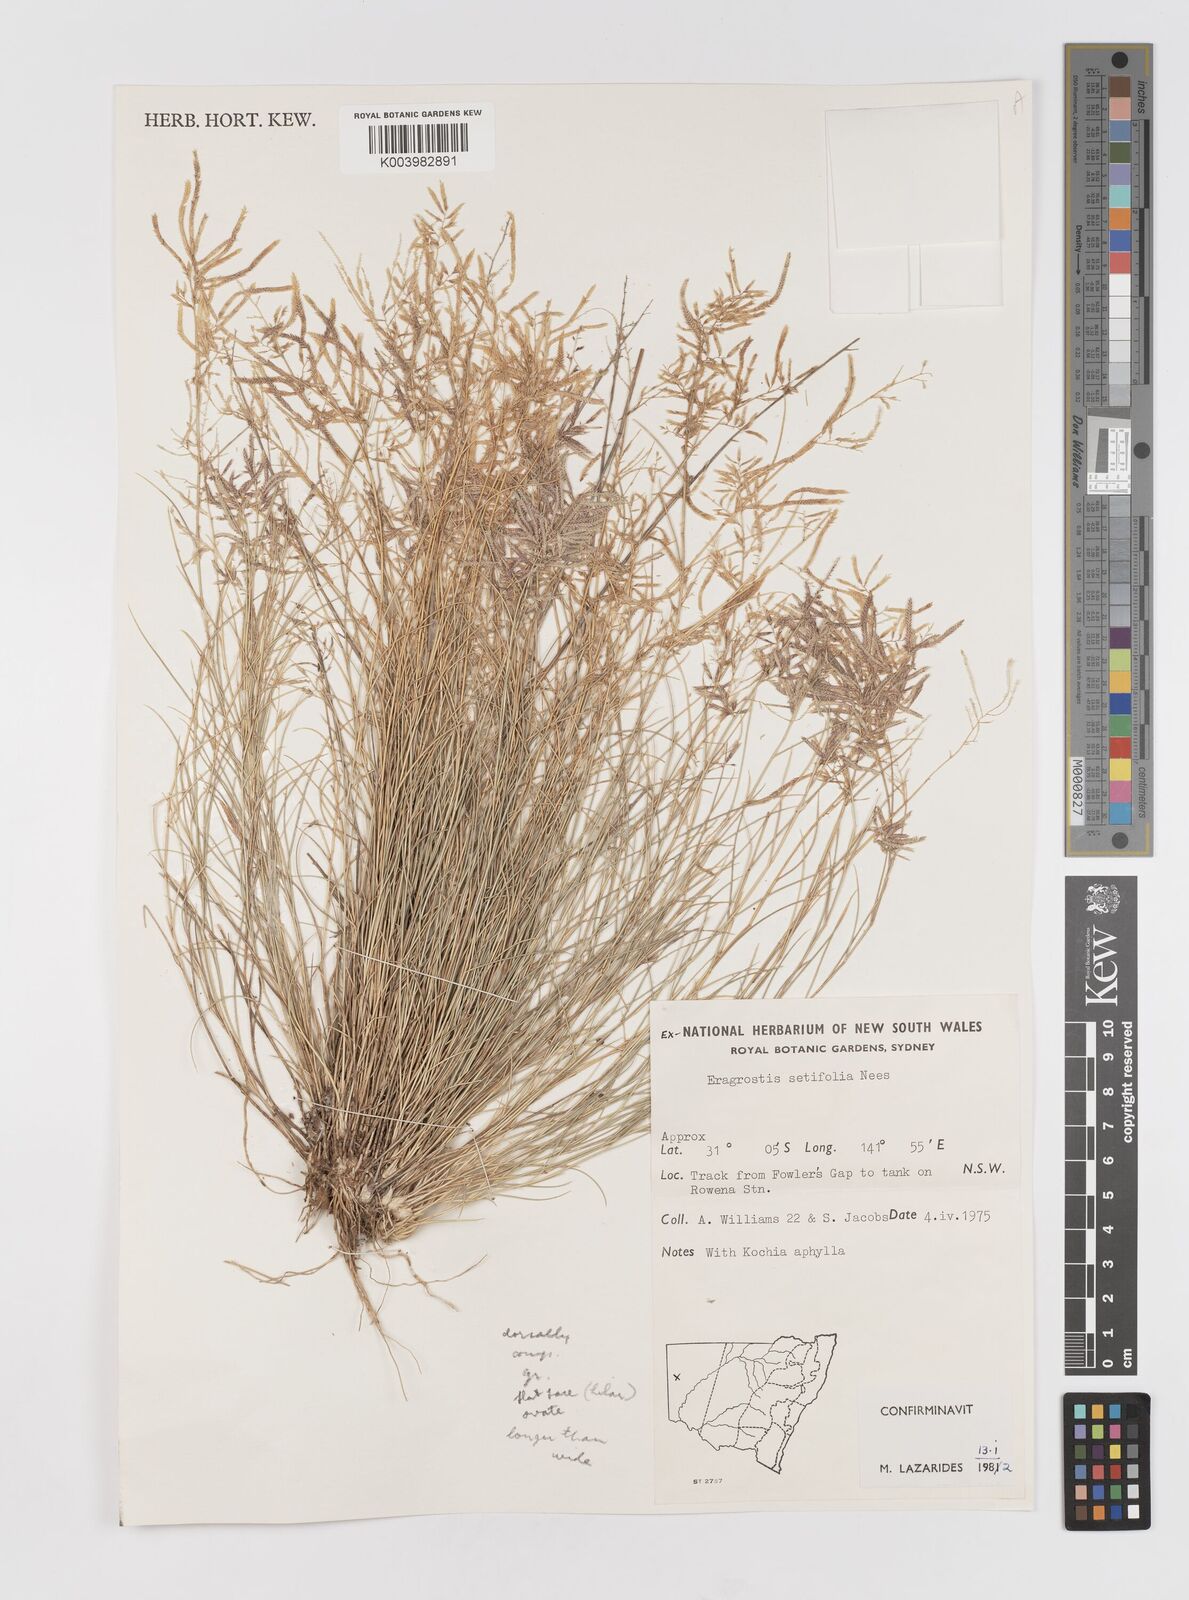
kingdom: Plantae
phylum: Tracheophyta
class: Liliopsida
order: Poales
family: Poaceae
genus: Eragrostis
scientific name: Eragrostis setifolia
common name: Bristleleaf lovegrass
